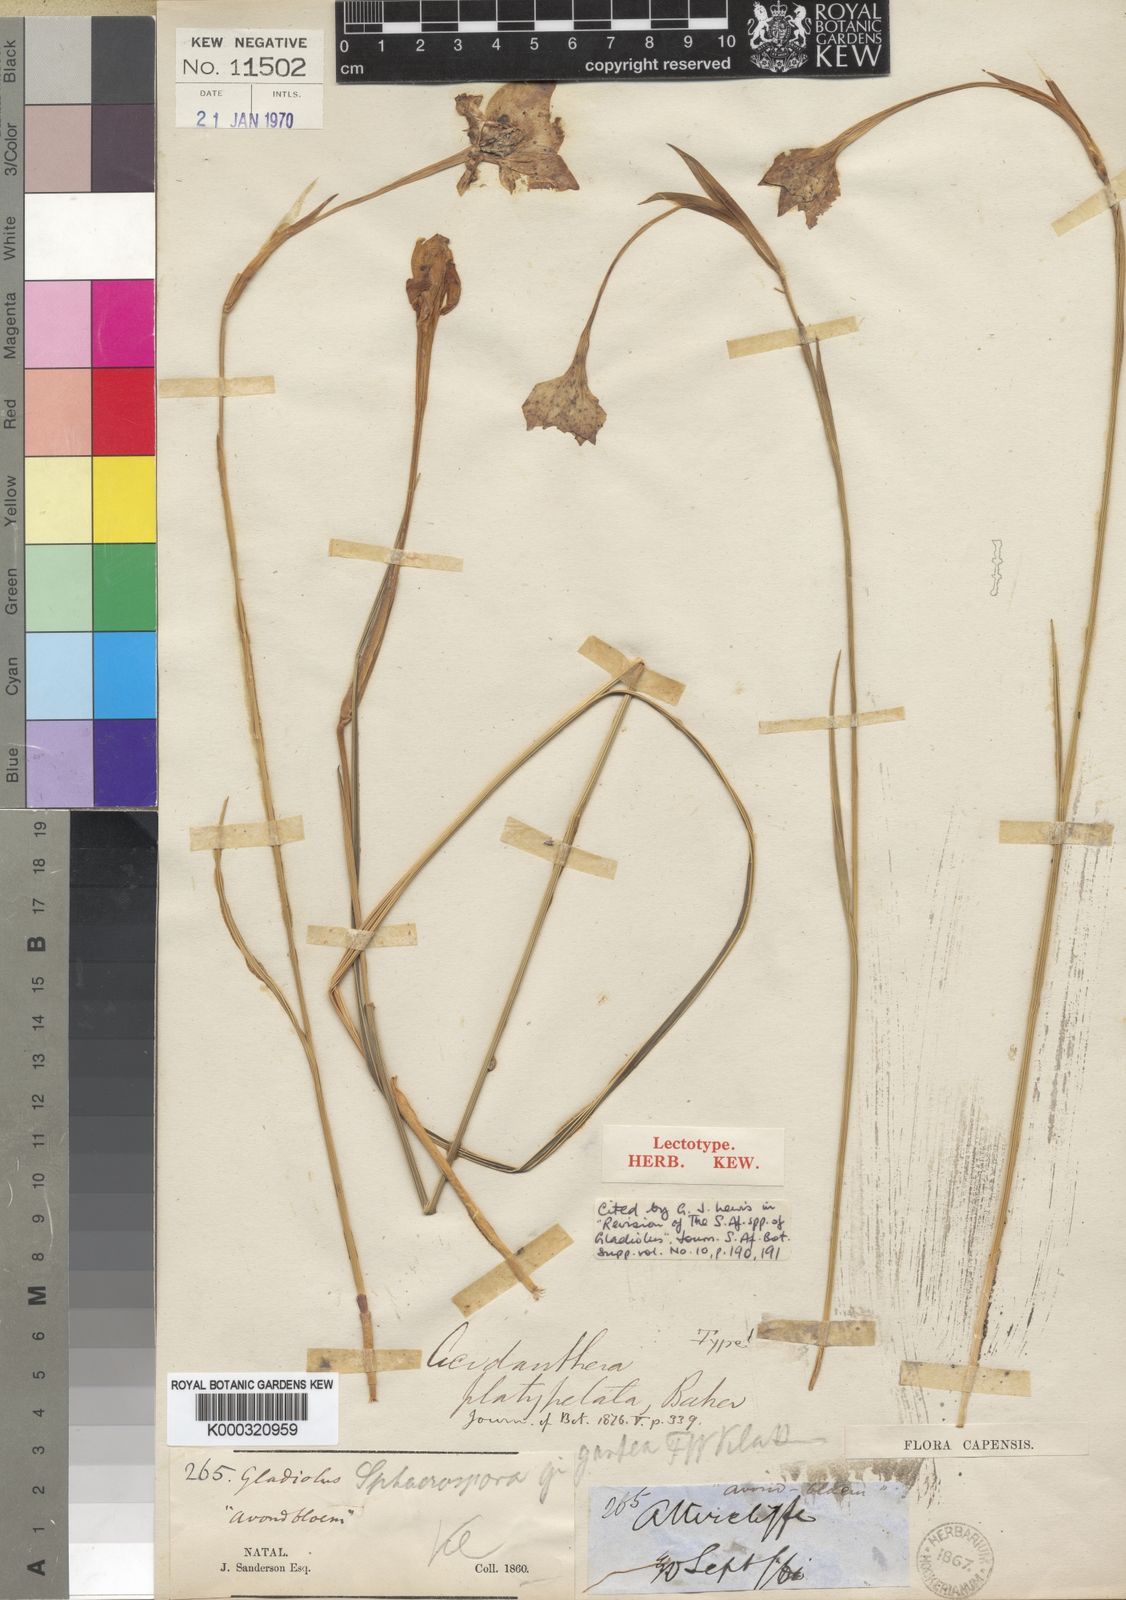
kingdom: Plantae
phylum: Tracheophyta
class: Liliopsida
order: Asparagales
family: Iridaceae
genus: Gladiolus
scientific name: Gladiolus longicollis
